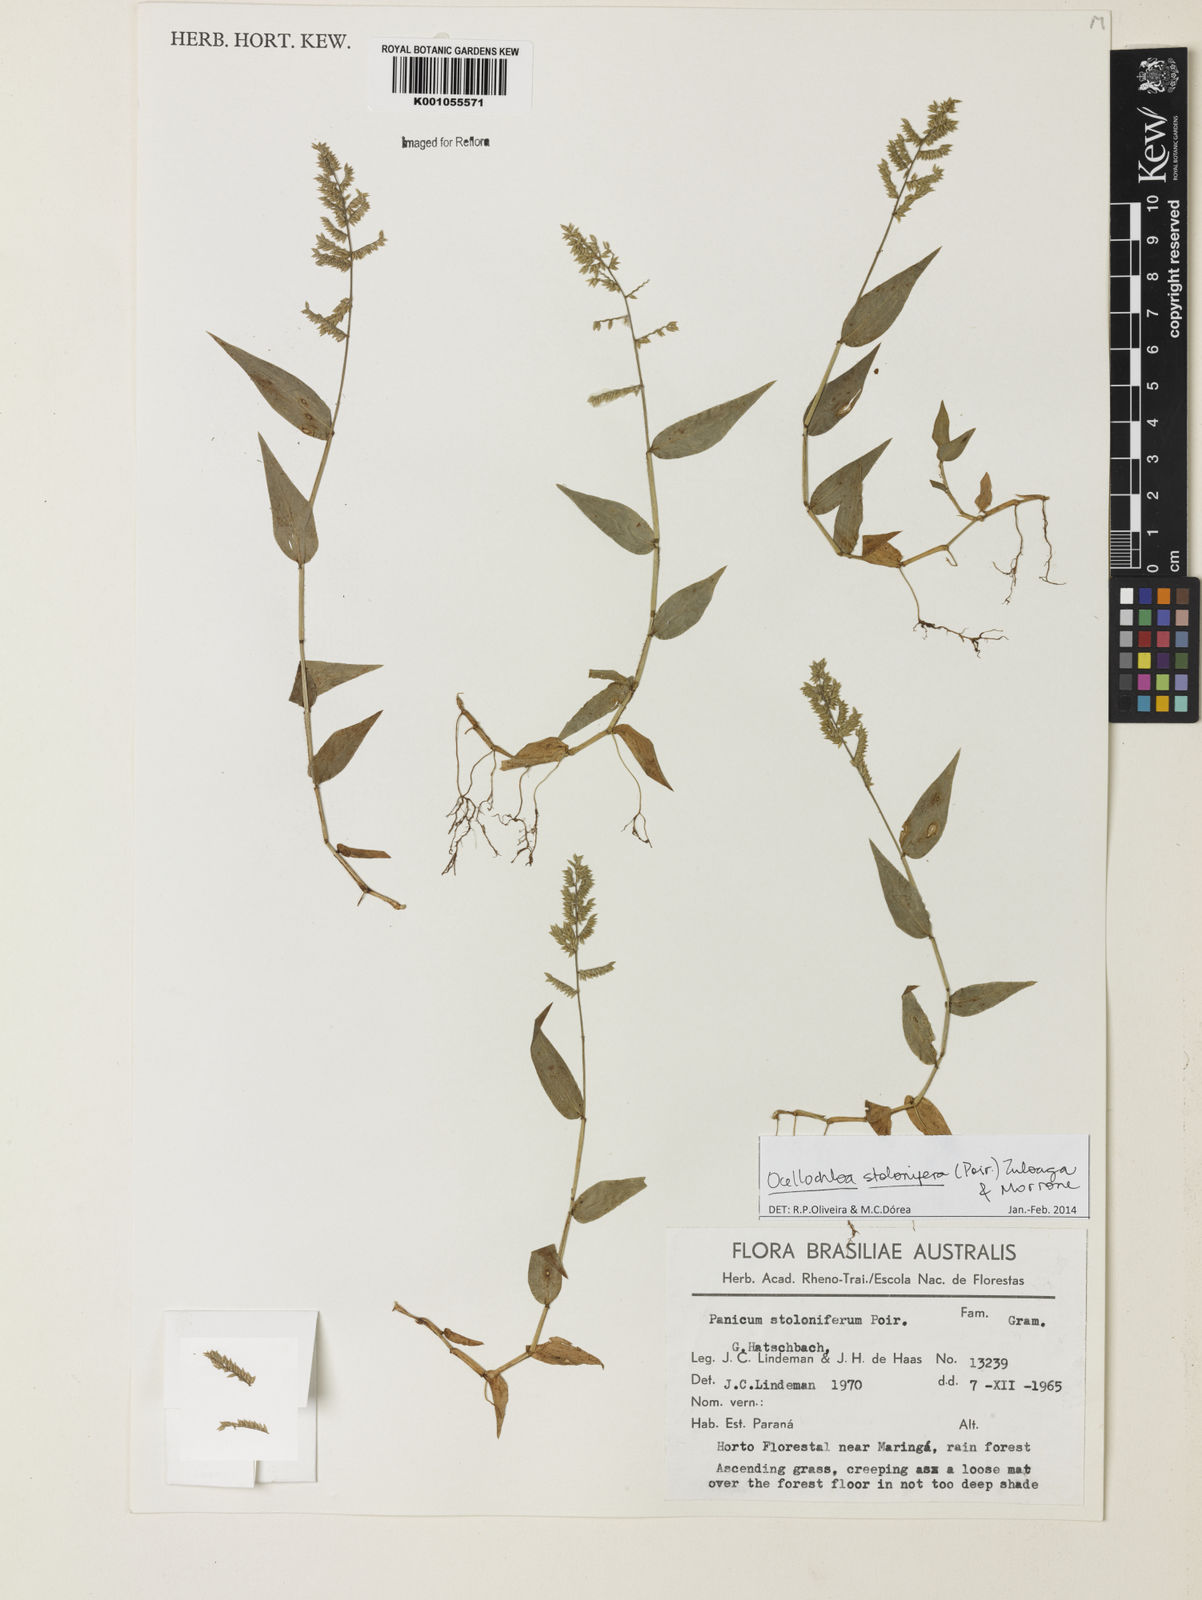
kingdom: Plantae
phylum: Tracheophyta
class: Liliopsida
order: Poales
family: Poaceae
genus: Ocellochloa
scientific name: Ocellochloa stolonifera
